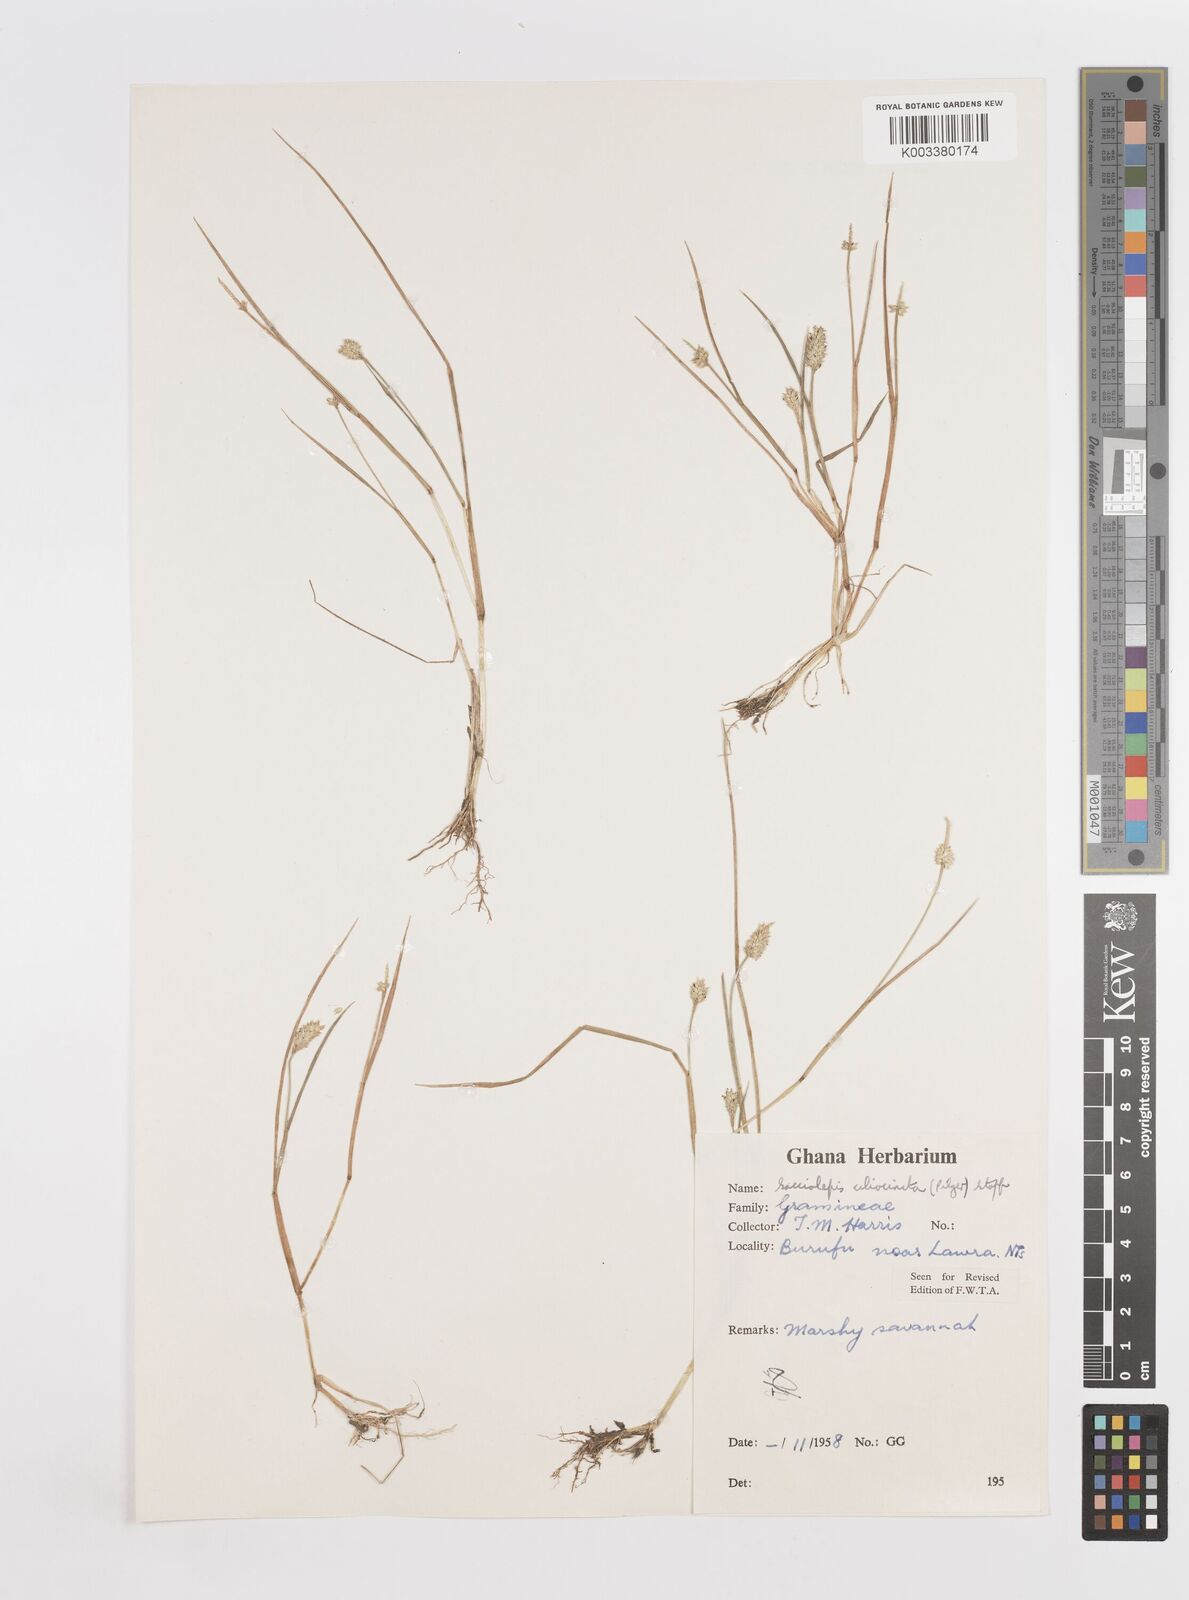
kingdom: Plantae
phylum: Tracheophyta
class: Liliopsida
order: Poales
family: Poaceae
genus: Sacciolepis
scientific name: Sacciolepis ciliocincta
